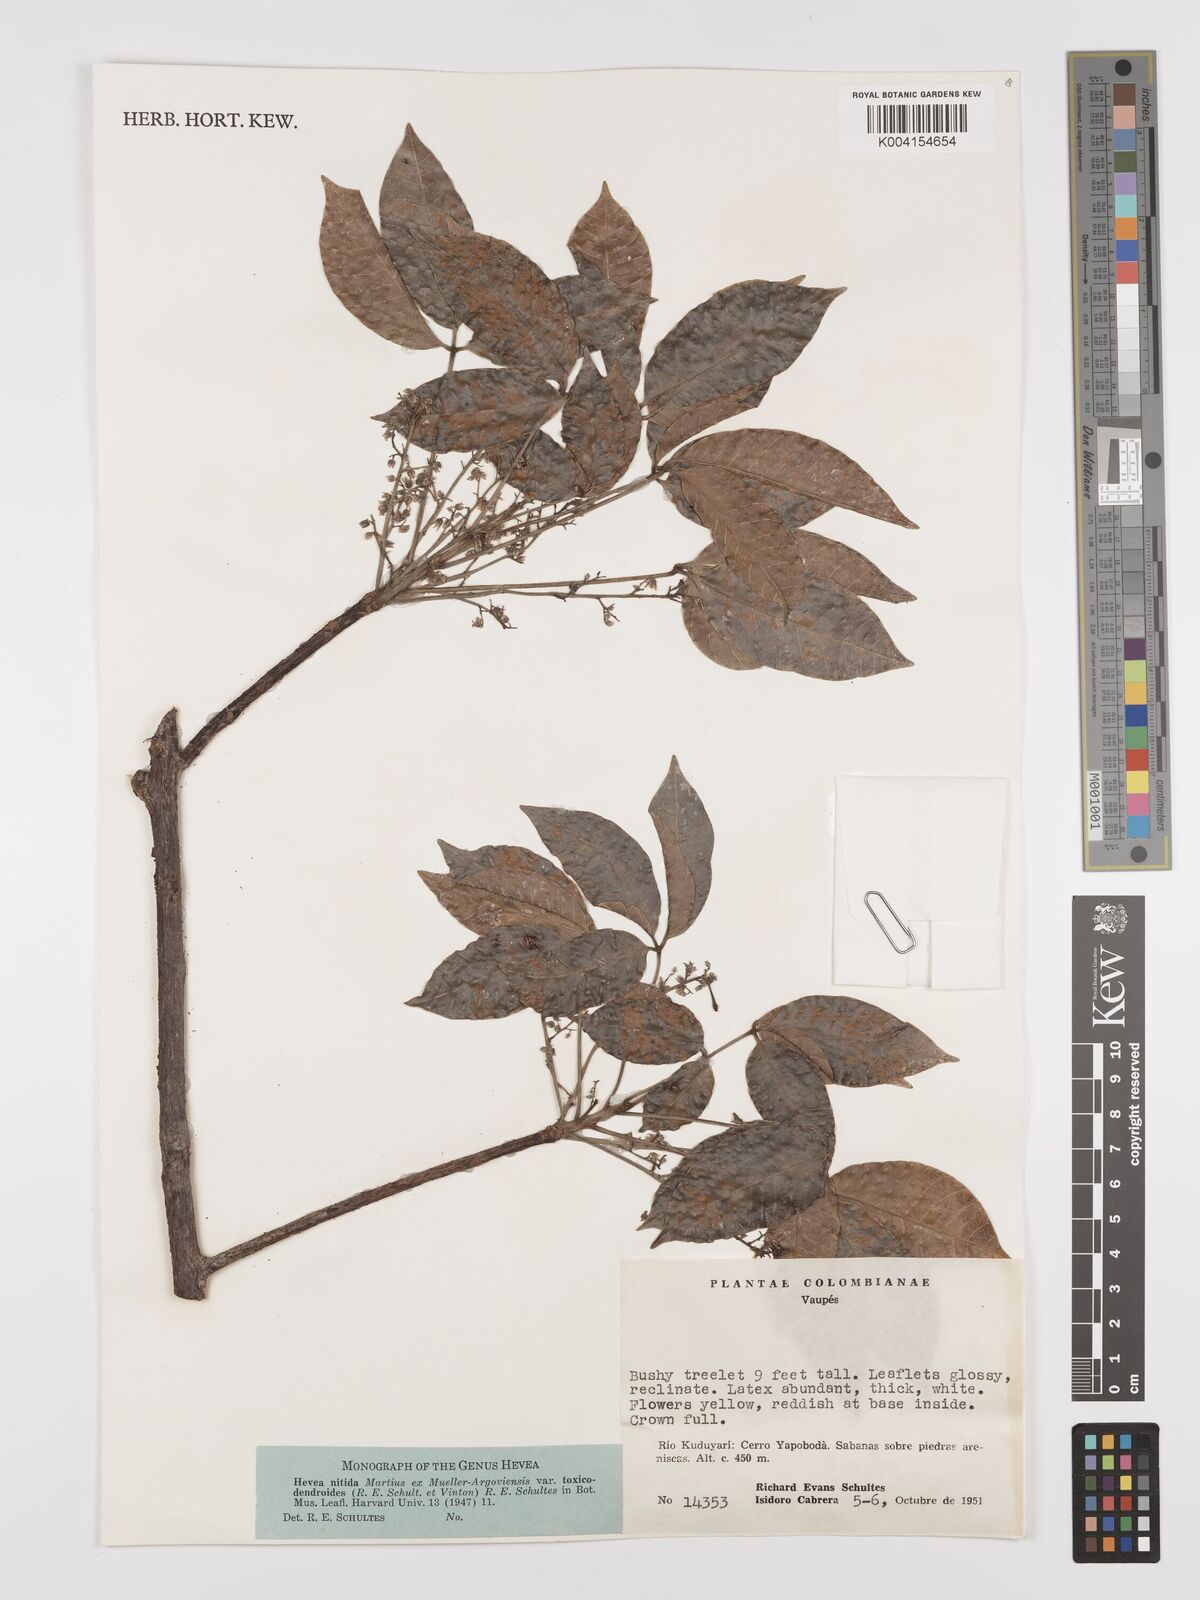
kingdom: Plantae
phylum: Tracheophyta
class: Magnoliopsida
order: Malpighiales
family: Euphorbiaceae
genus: Hevea
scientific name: Hevea nitida
